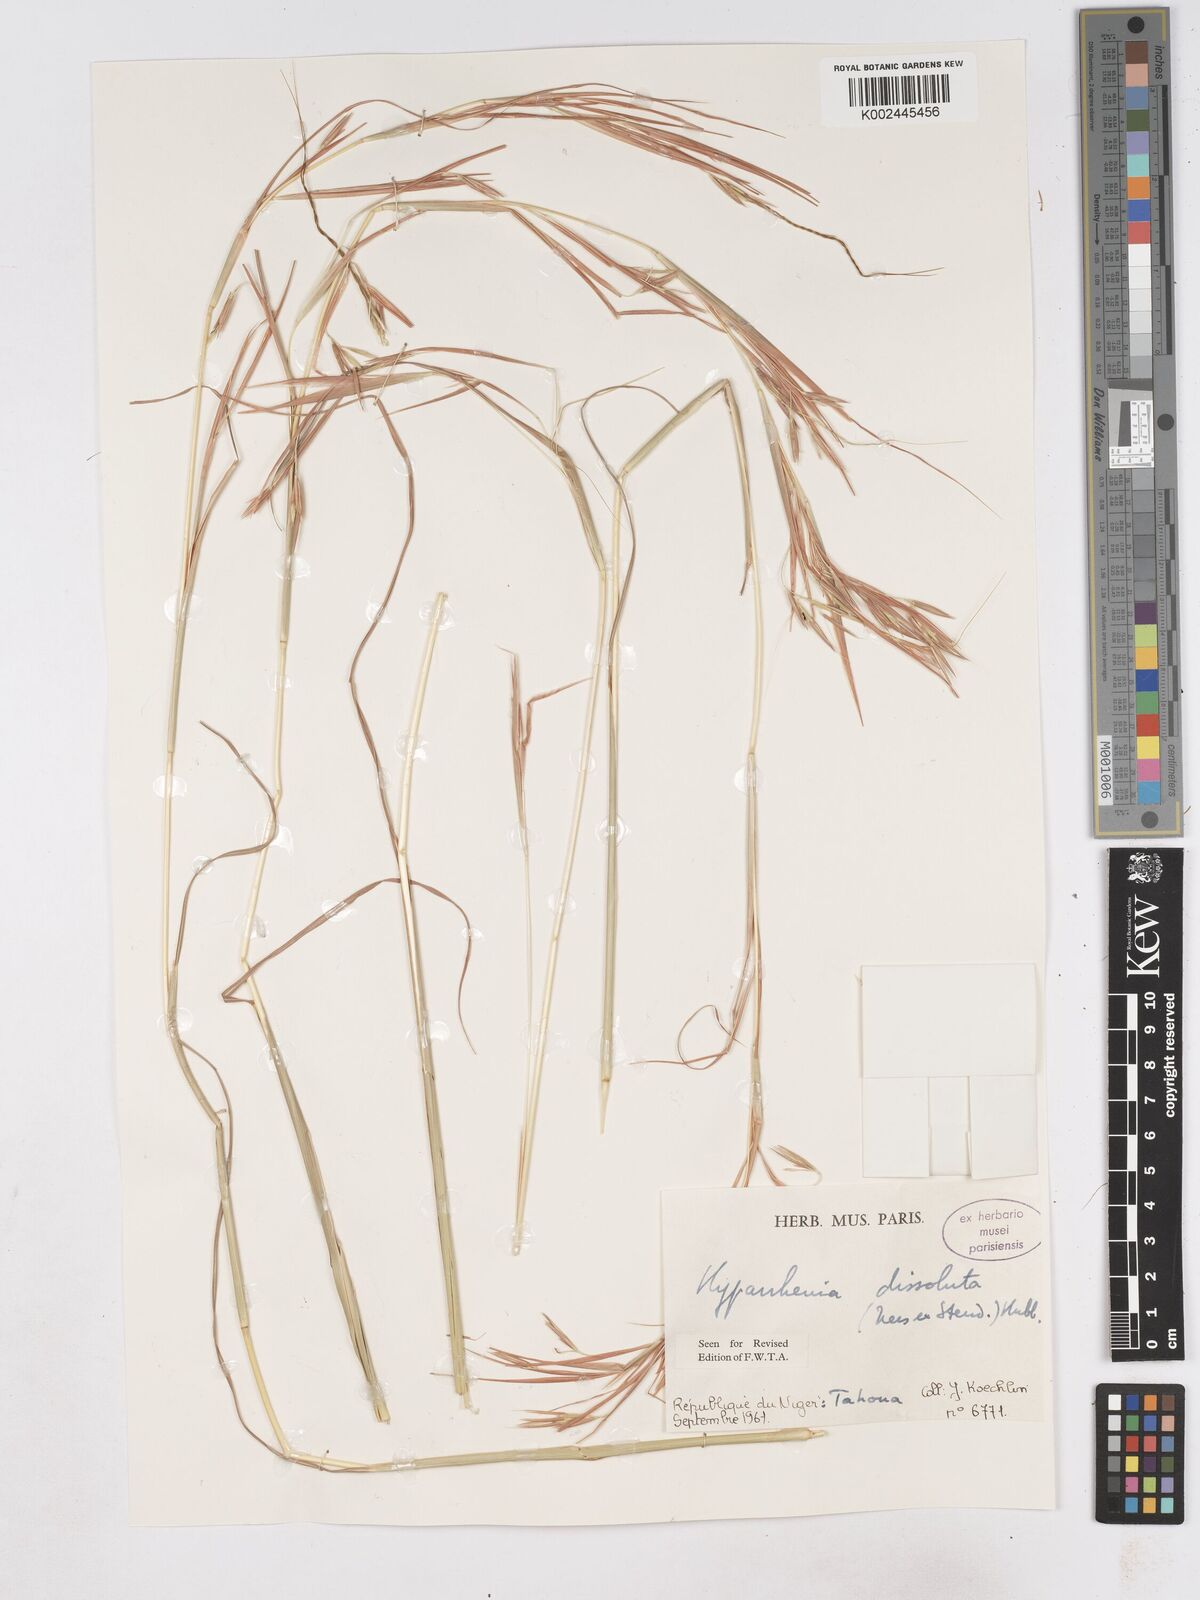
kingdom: Plantae
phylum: Tracheophyta
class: Liliopsida
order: Poales
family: Poaceae
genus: Hyperthelia
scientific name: Hyperthelia dissoluta
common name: Yellow thatching grass
